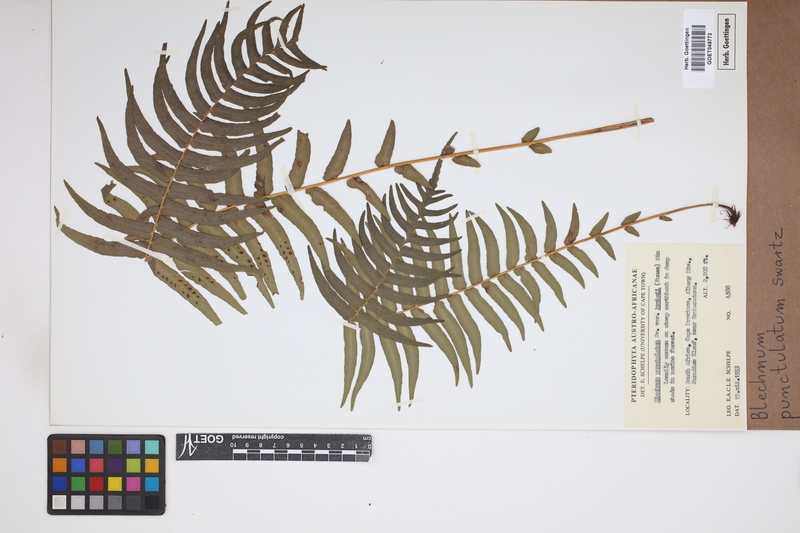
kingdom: Plantae
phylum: Tracheophyta
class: Polypodiopsida
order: Polypodiales
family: Blechnaceae
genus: Blechnum
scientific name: Blechnum punctulatum
